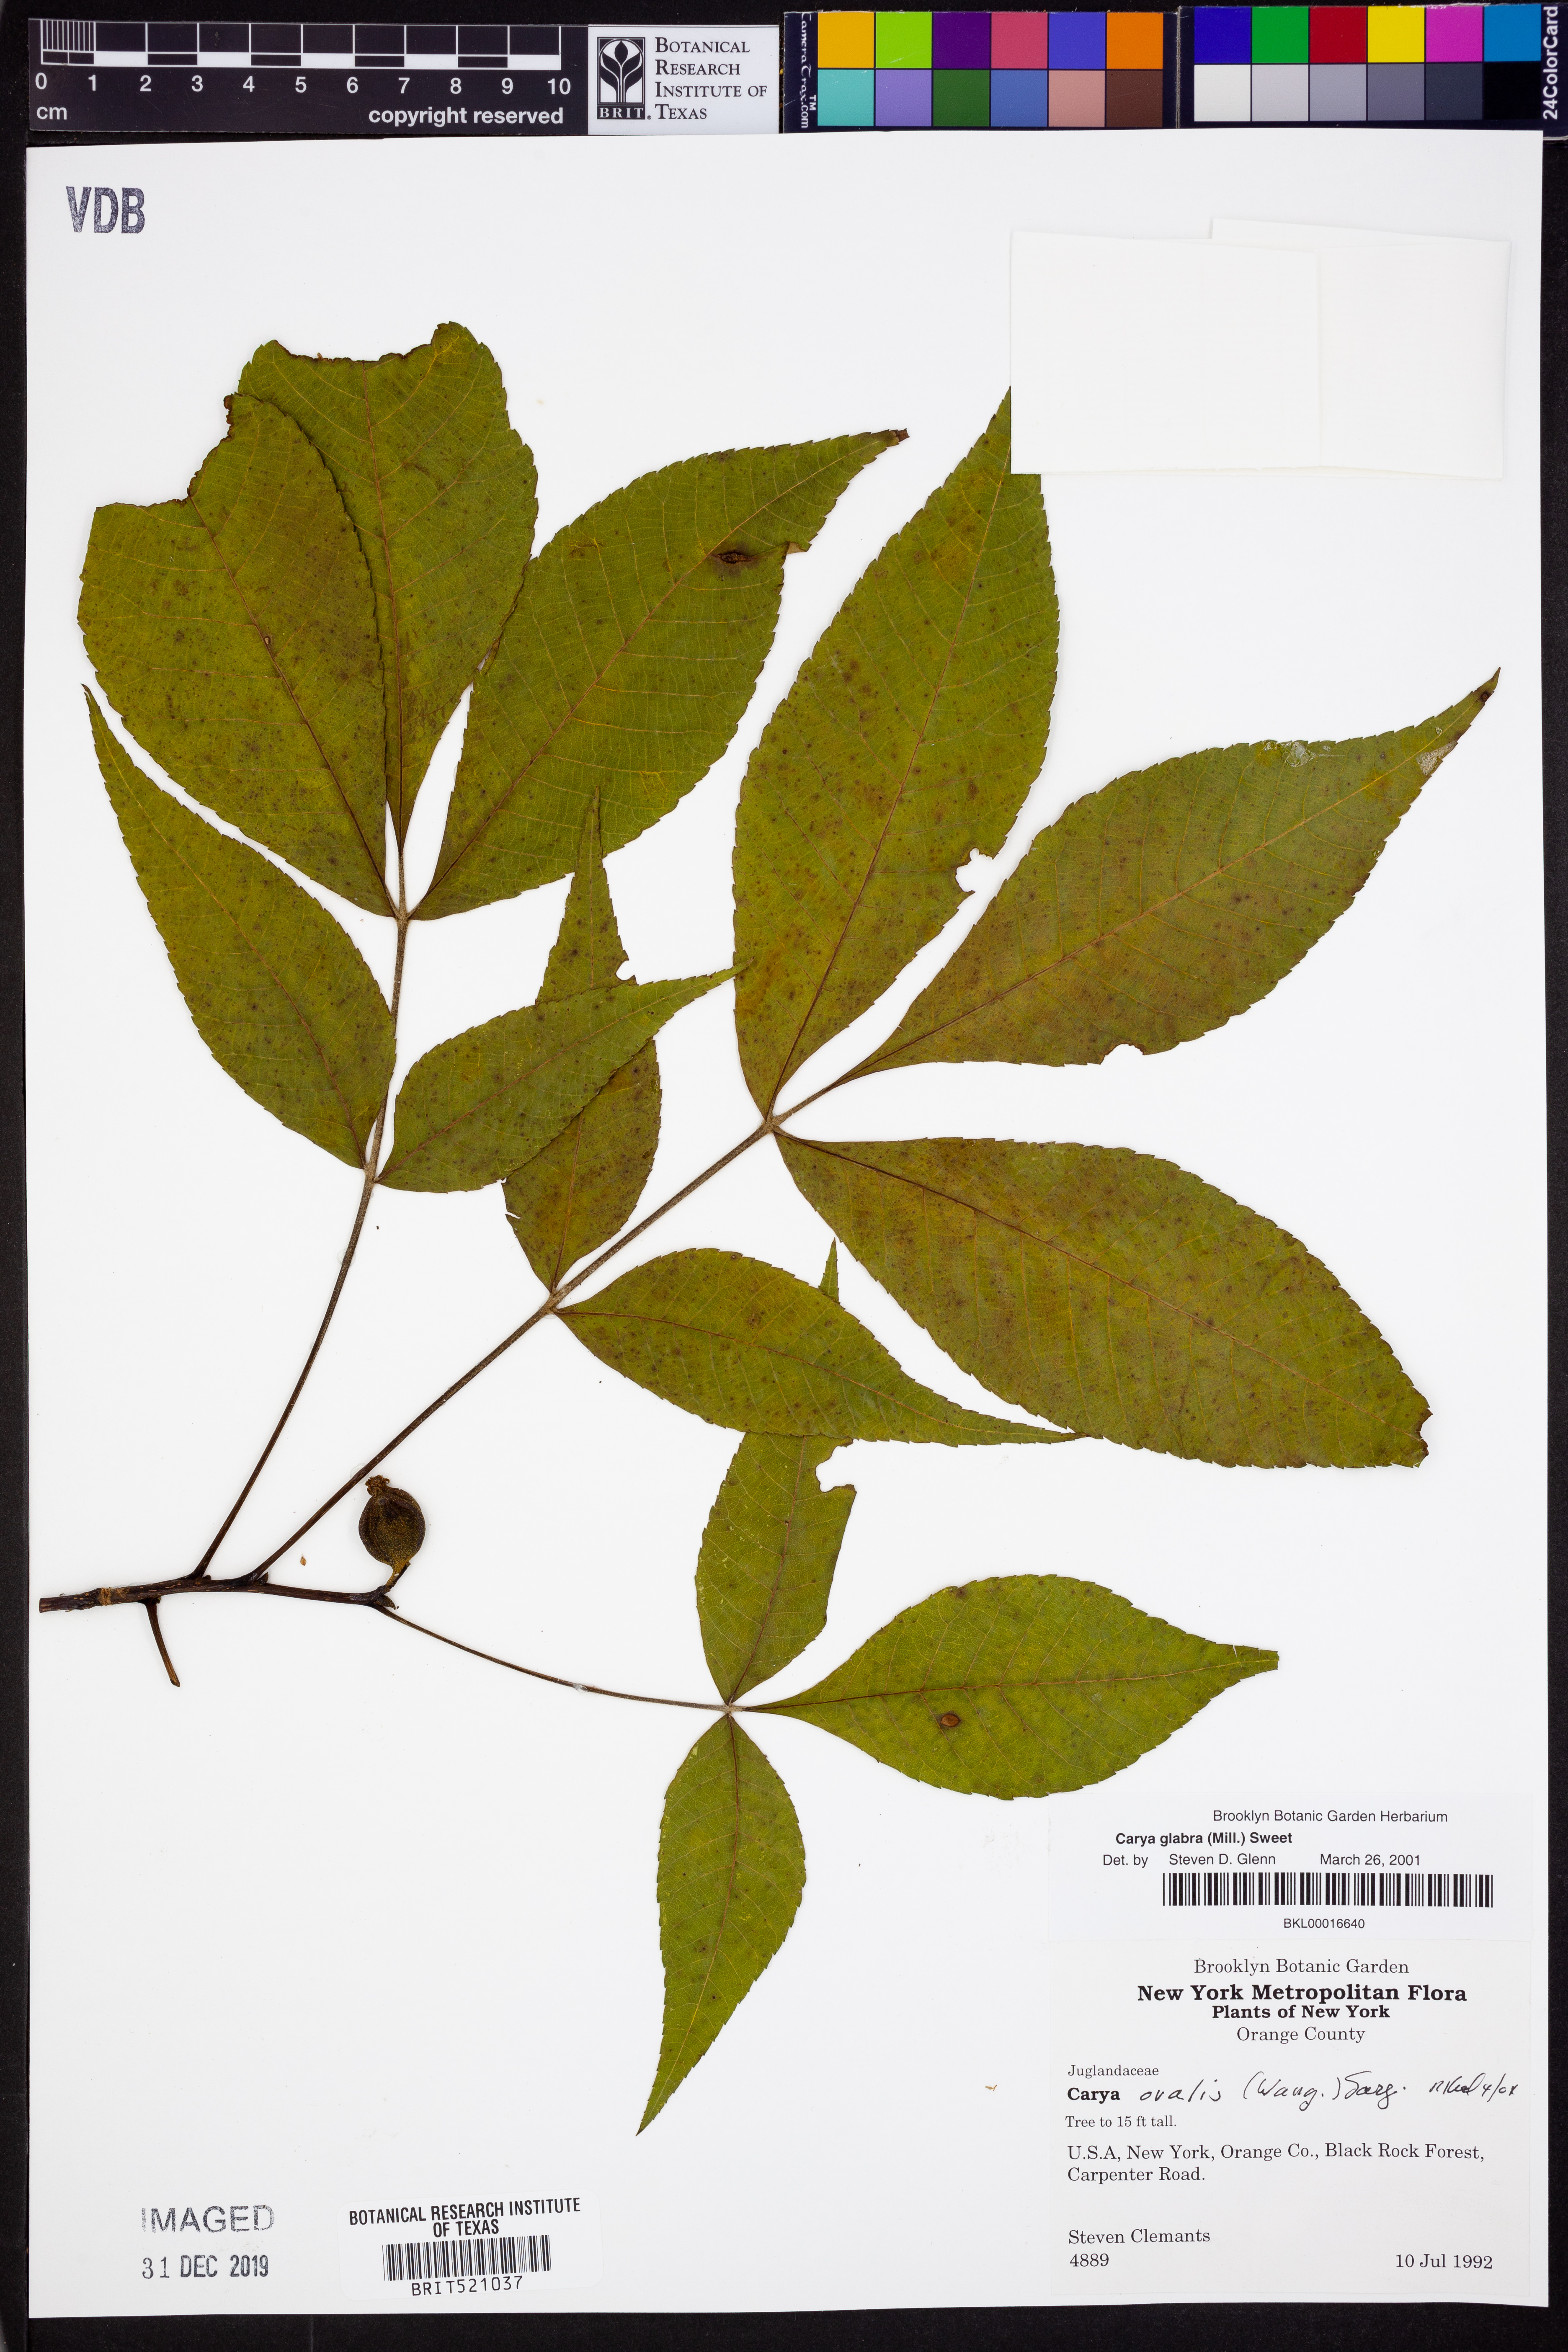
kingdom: Plantae
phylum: Tracheophyta
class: Magnoliopsida
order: Fagales
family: Juglandaceae
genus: Carya
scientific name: Carya glabra
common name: Pignut hickory
